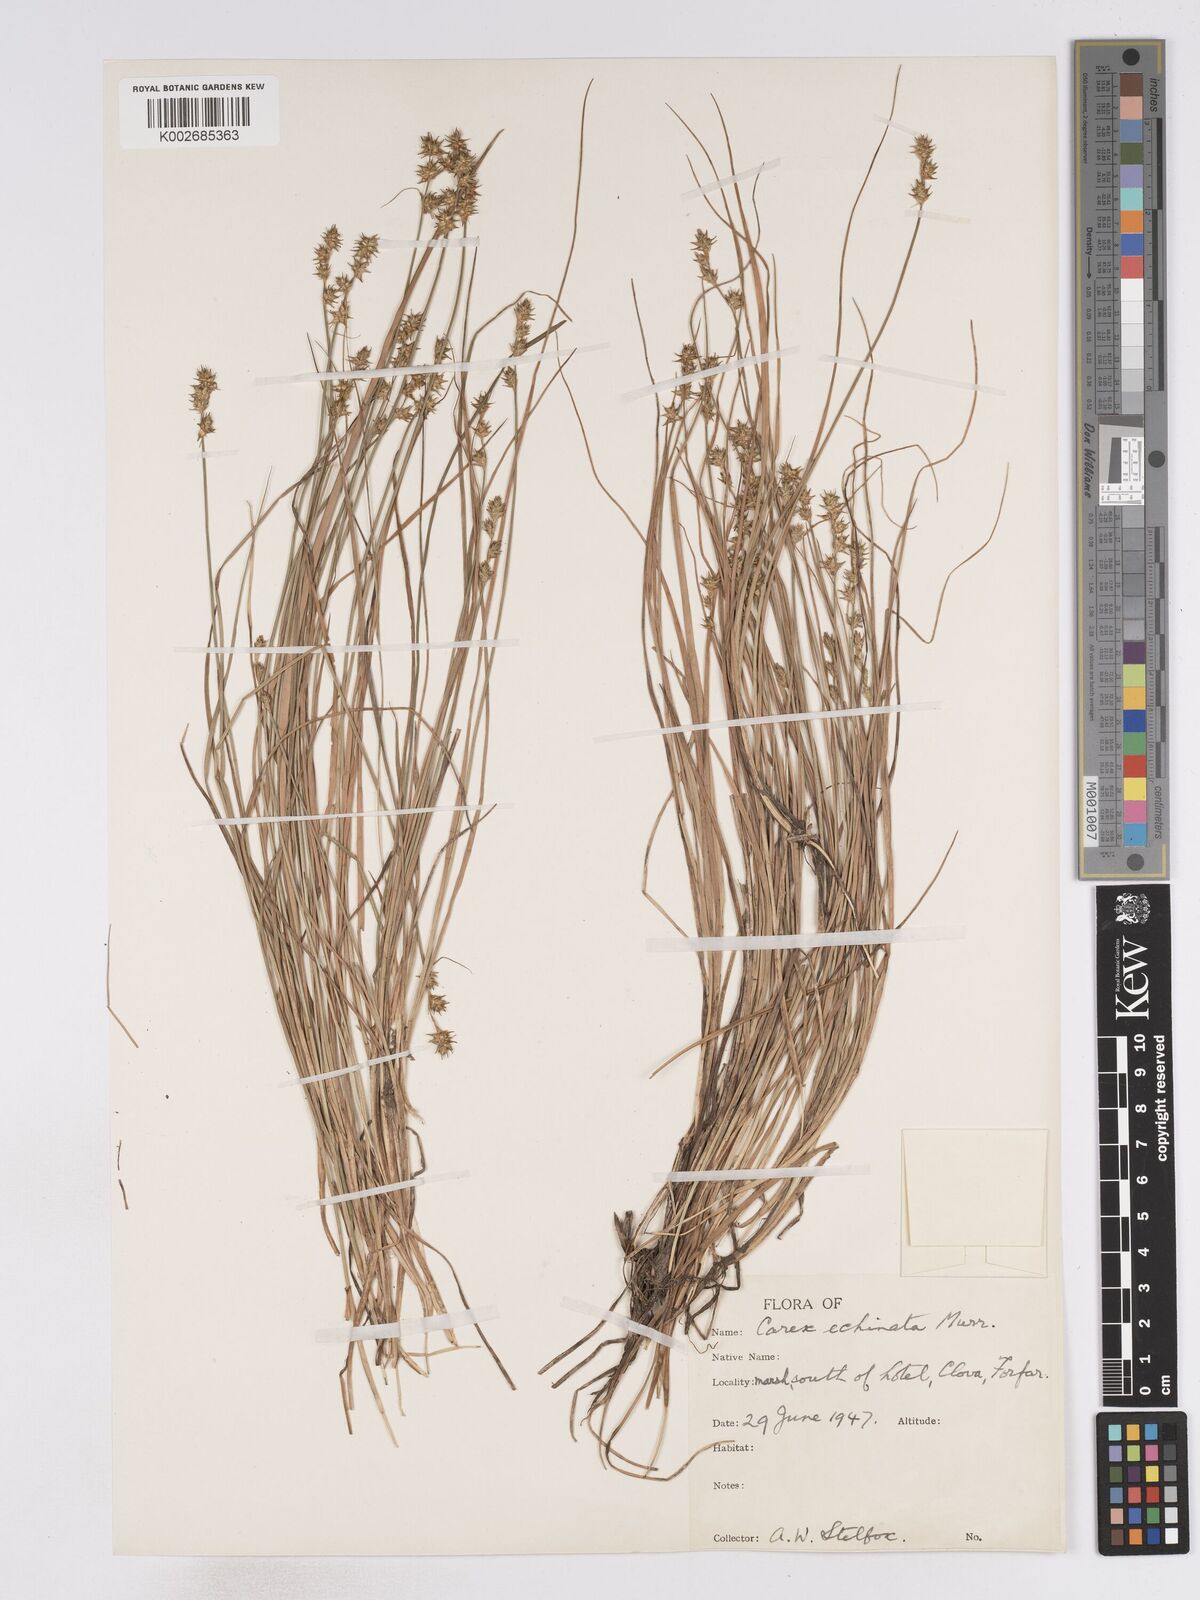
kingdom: Plantae
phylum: Tracheophyta
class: Liliopsida
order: Poales
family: Cyperaceae
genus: Carex
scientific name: Carex echinata
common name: Star sedge
